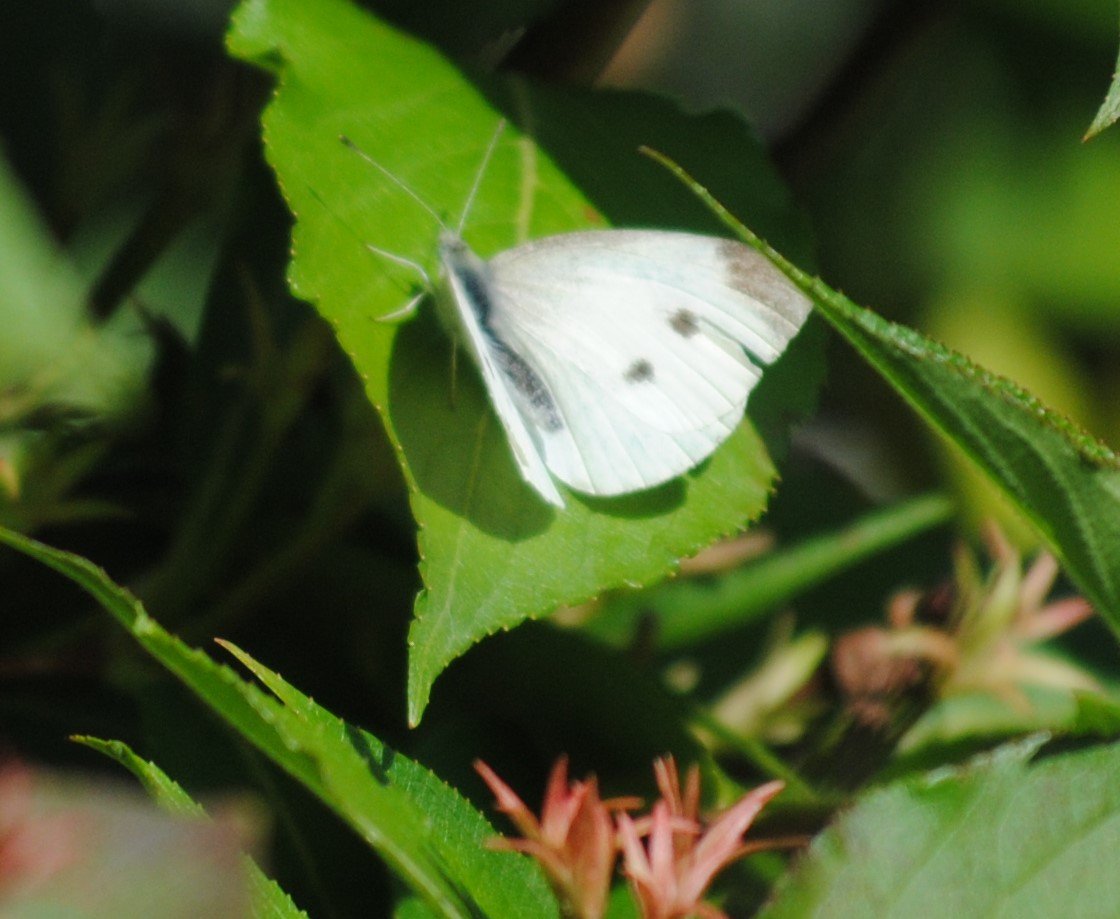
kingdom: Animalia
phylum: Arthropoda
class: Insecta
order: Lepidoptera
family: Pieridae
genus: Pieris
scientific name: Pieris rapae
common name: Cabbage White
